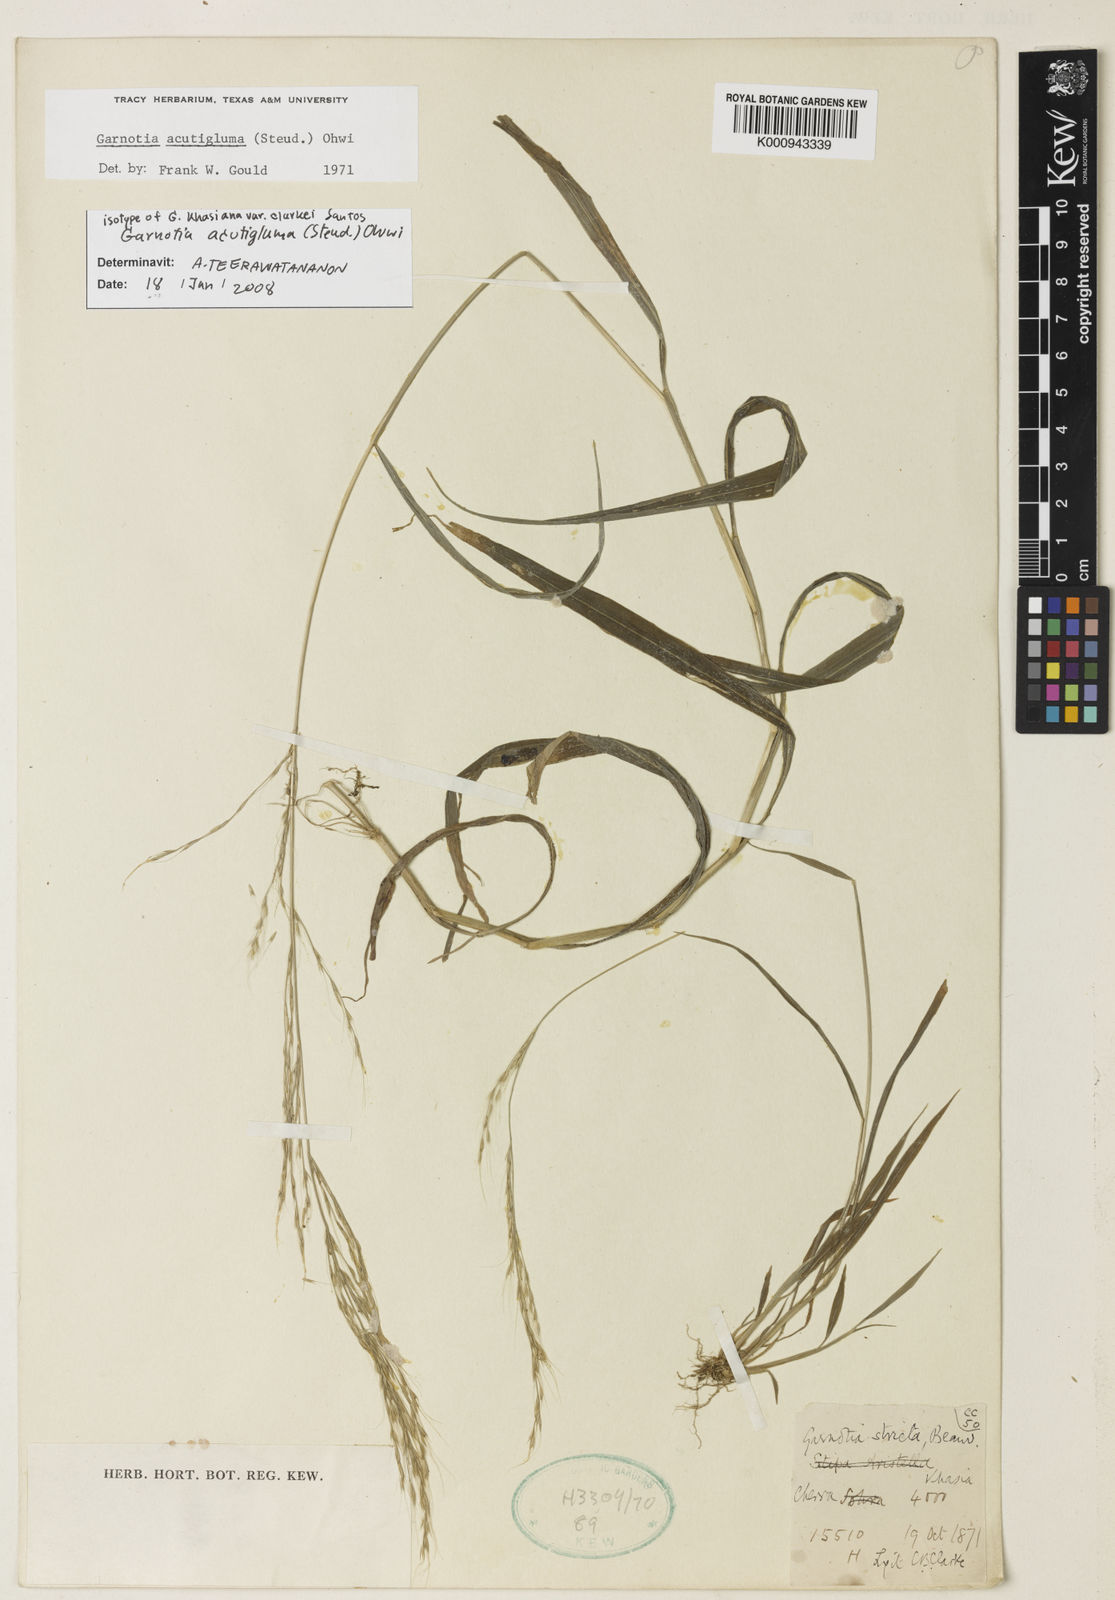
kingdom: Plantae
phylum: Tracheophyta
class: Liliopsida
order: Poales
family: Poaceae
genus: Garnotia
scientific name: Garnotia stricta
